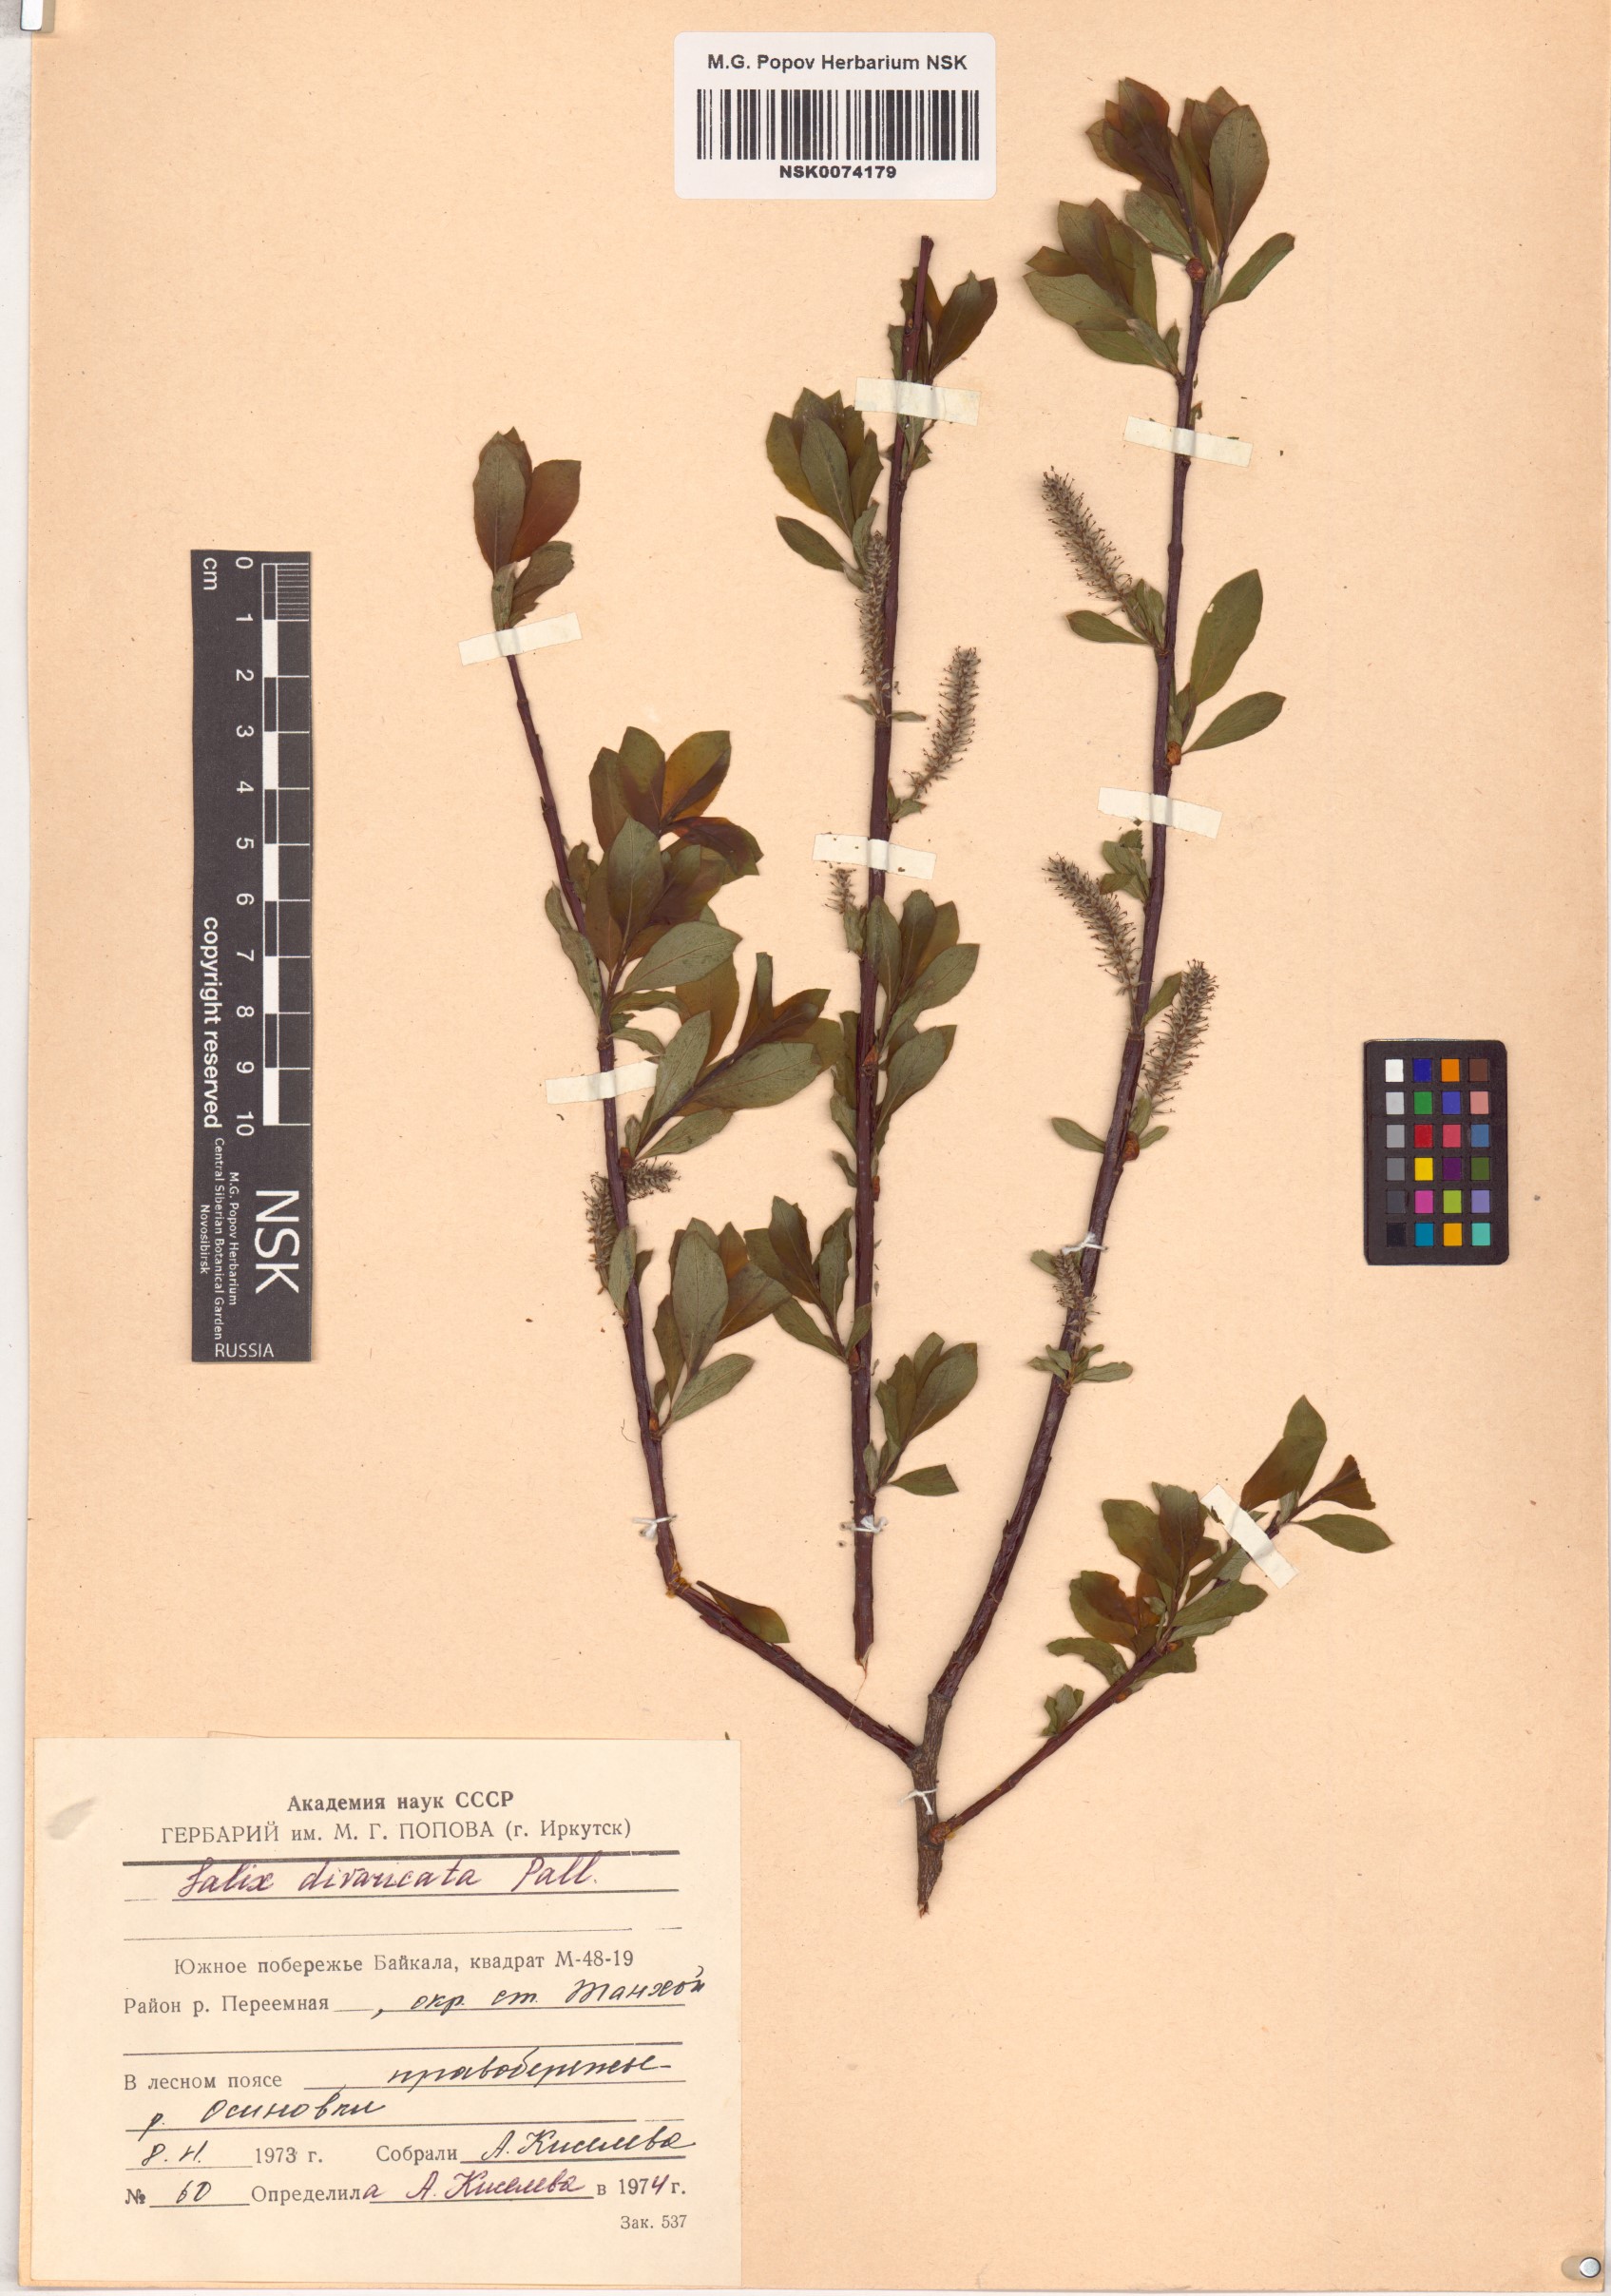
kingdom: Plantae
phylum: Tracheophyta
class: Magnoliopsida
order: Malpighiales
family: Salicaceae
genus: Salix
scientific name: Salix divaricata
